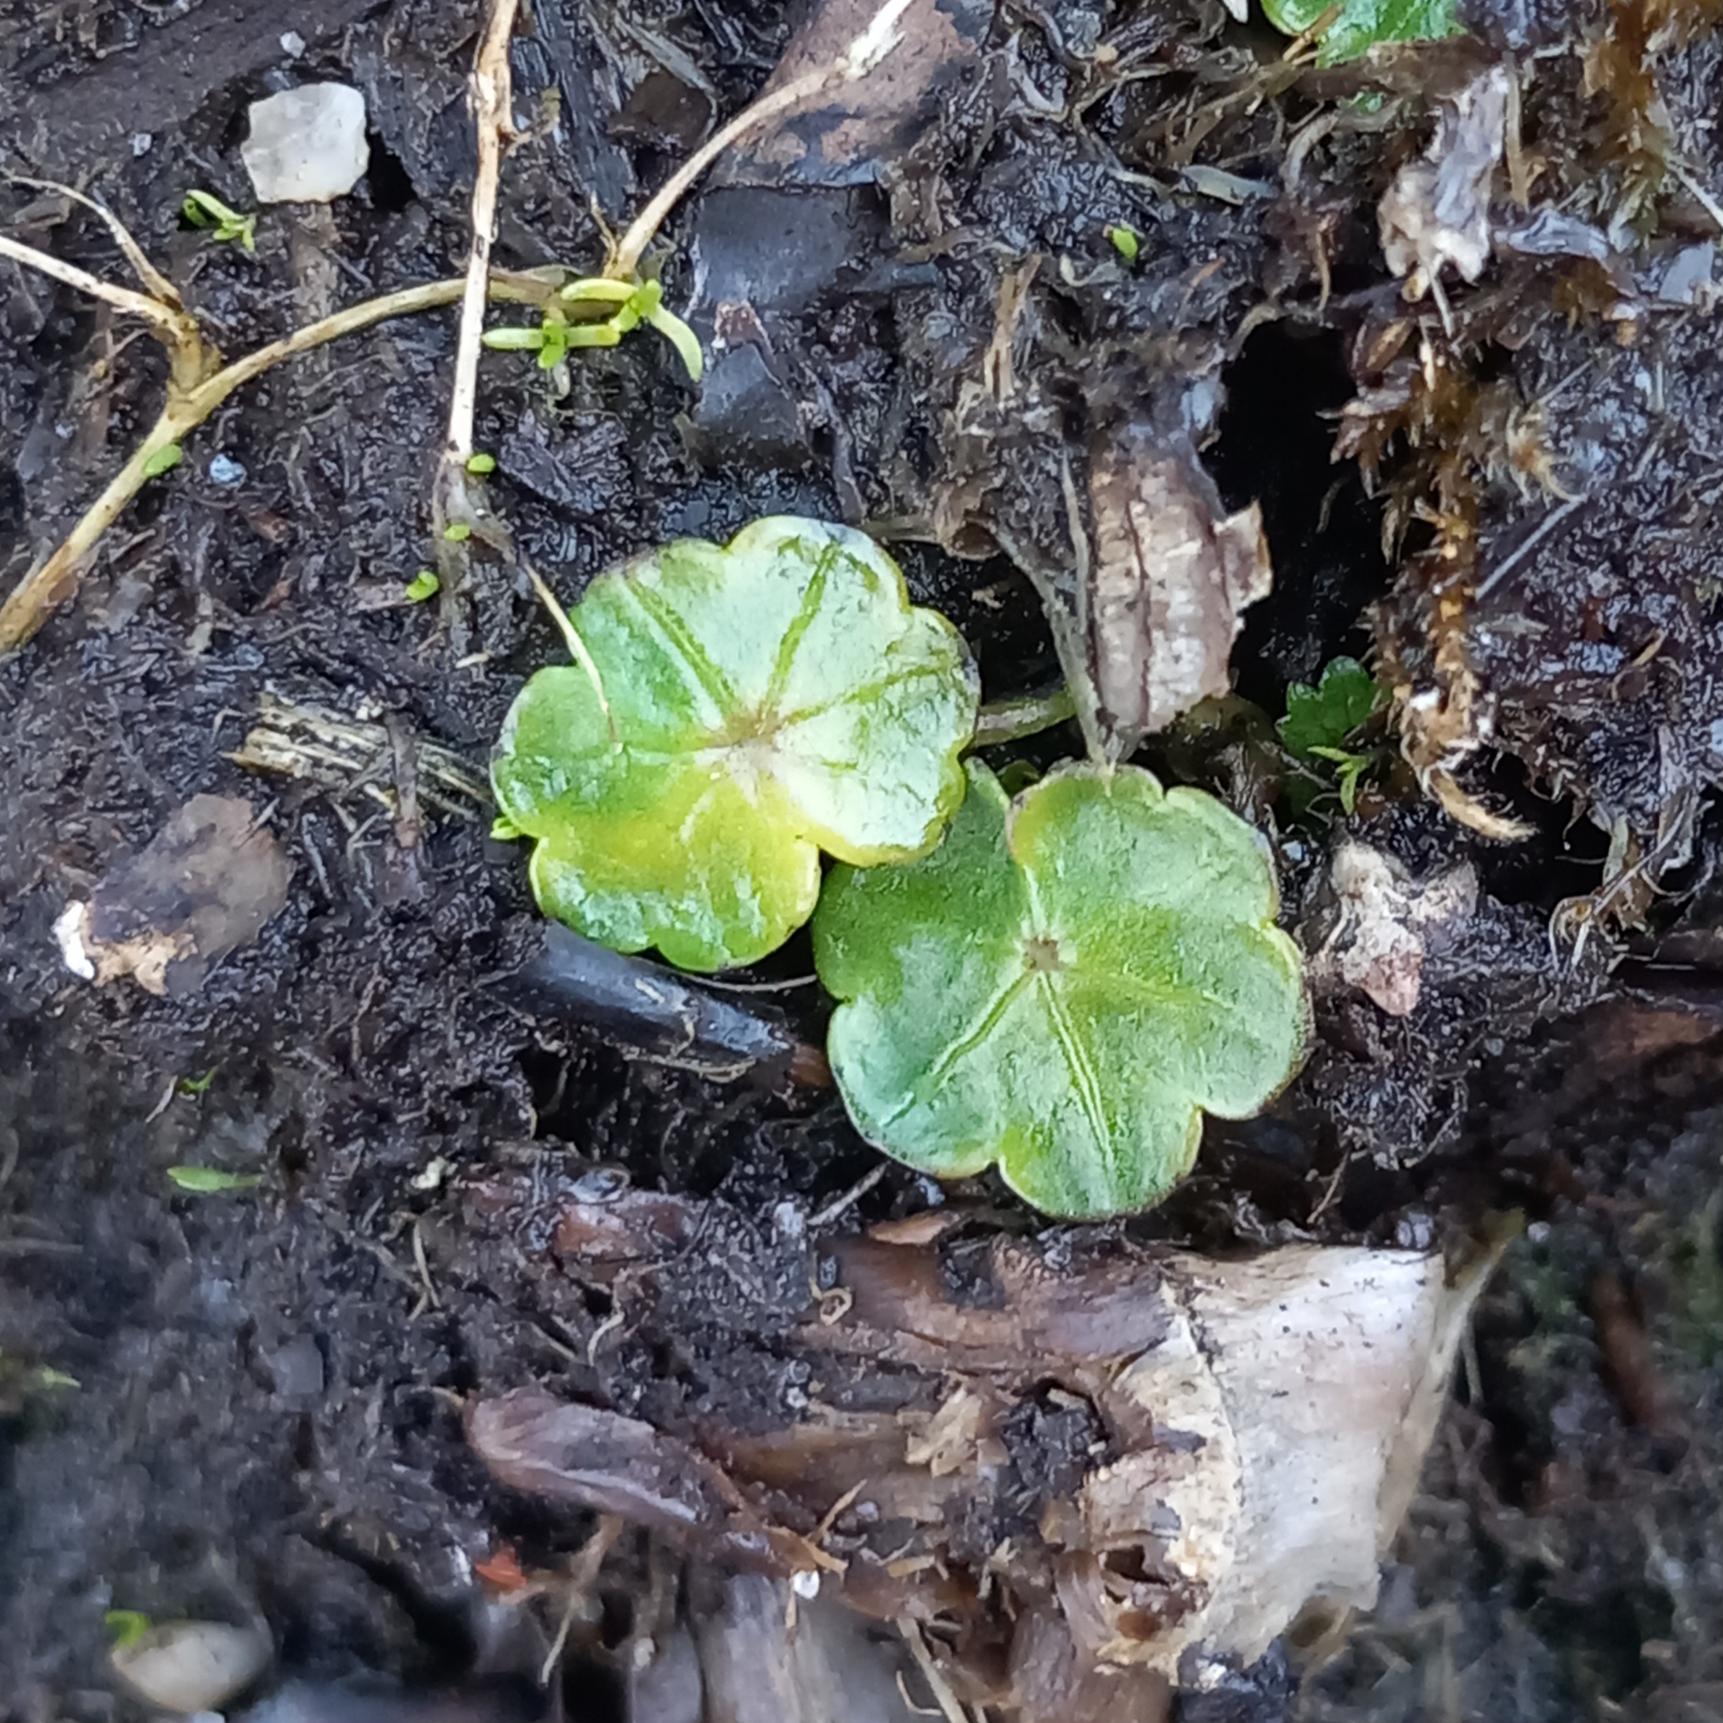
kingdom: Plantae
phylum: Tracheophyta
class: Magnoliopsida
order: Apiales
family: Araliaceae
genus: Hydrocotyle
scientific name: Hydrocotyle vulgaris
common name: Vandnavle
